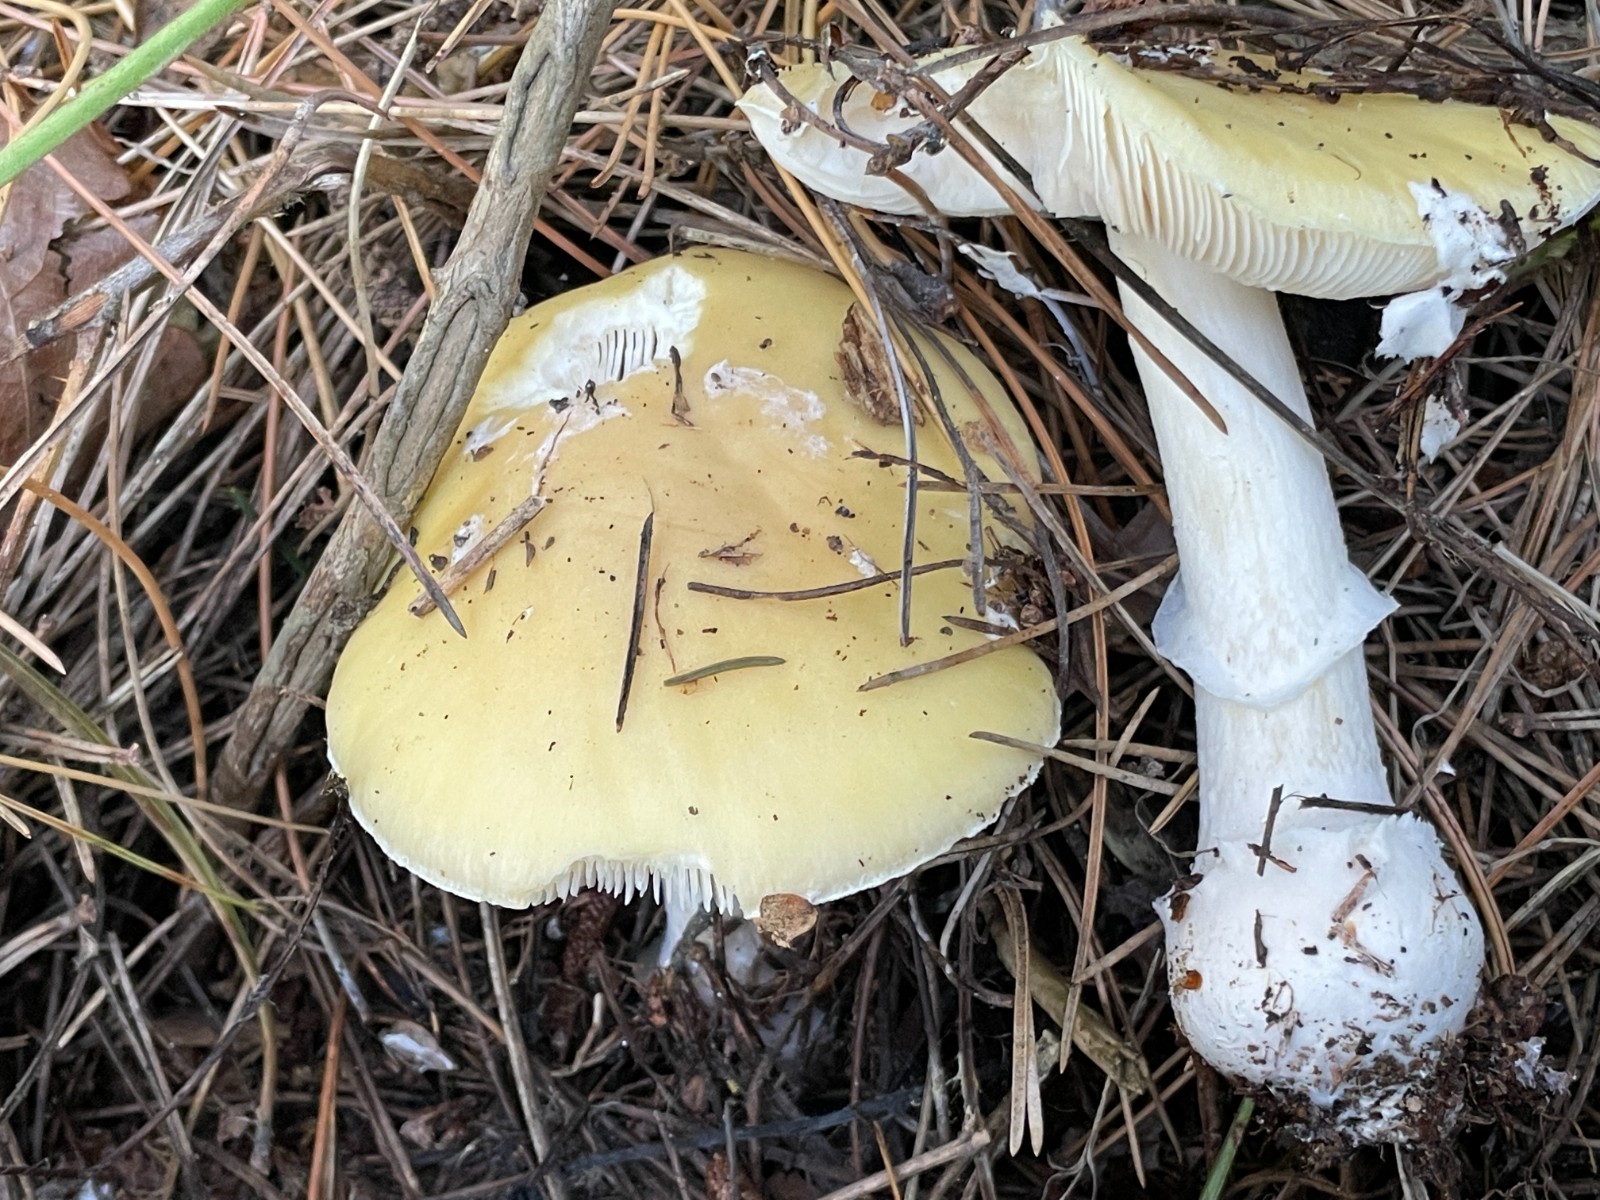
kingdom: Fungi
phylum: Basidiomycota
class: Agaricomycetes
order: Agaricales
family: Amanitaceae
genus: Amanita
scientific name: Amanita gemmata
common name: okkergul fluesvamp
